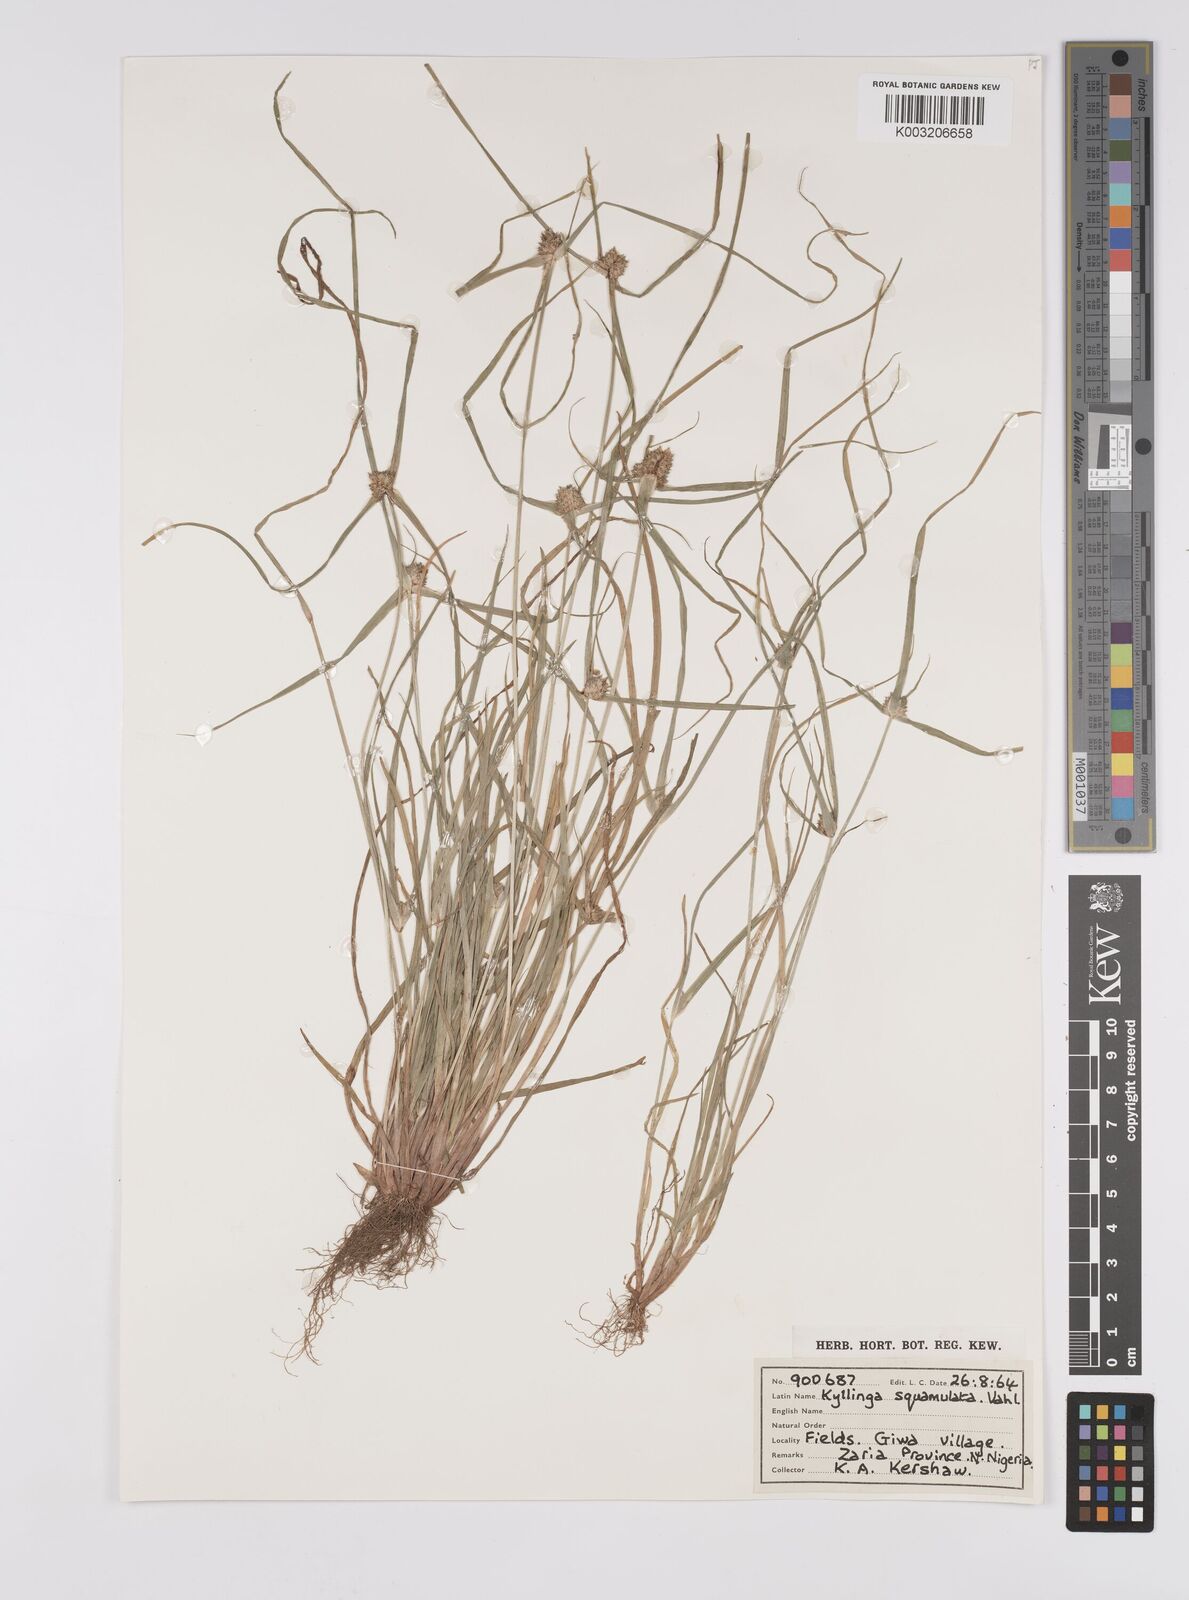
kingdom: Plantae
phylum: Tracheophyta
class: Liliopsida
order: Poales
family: Cyperaceae
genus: Cyperus
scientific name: Cyperus distans
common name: Slender cyperus
